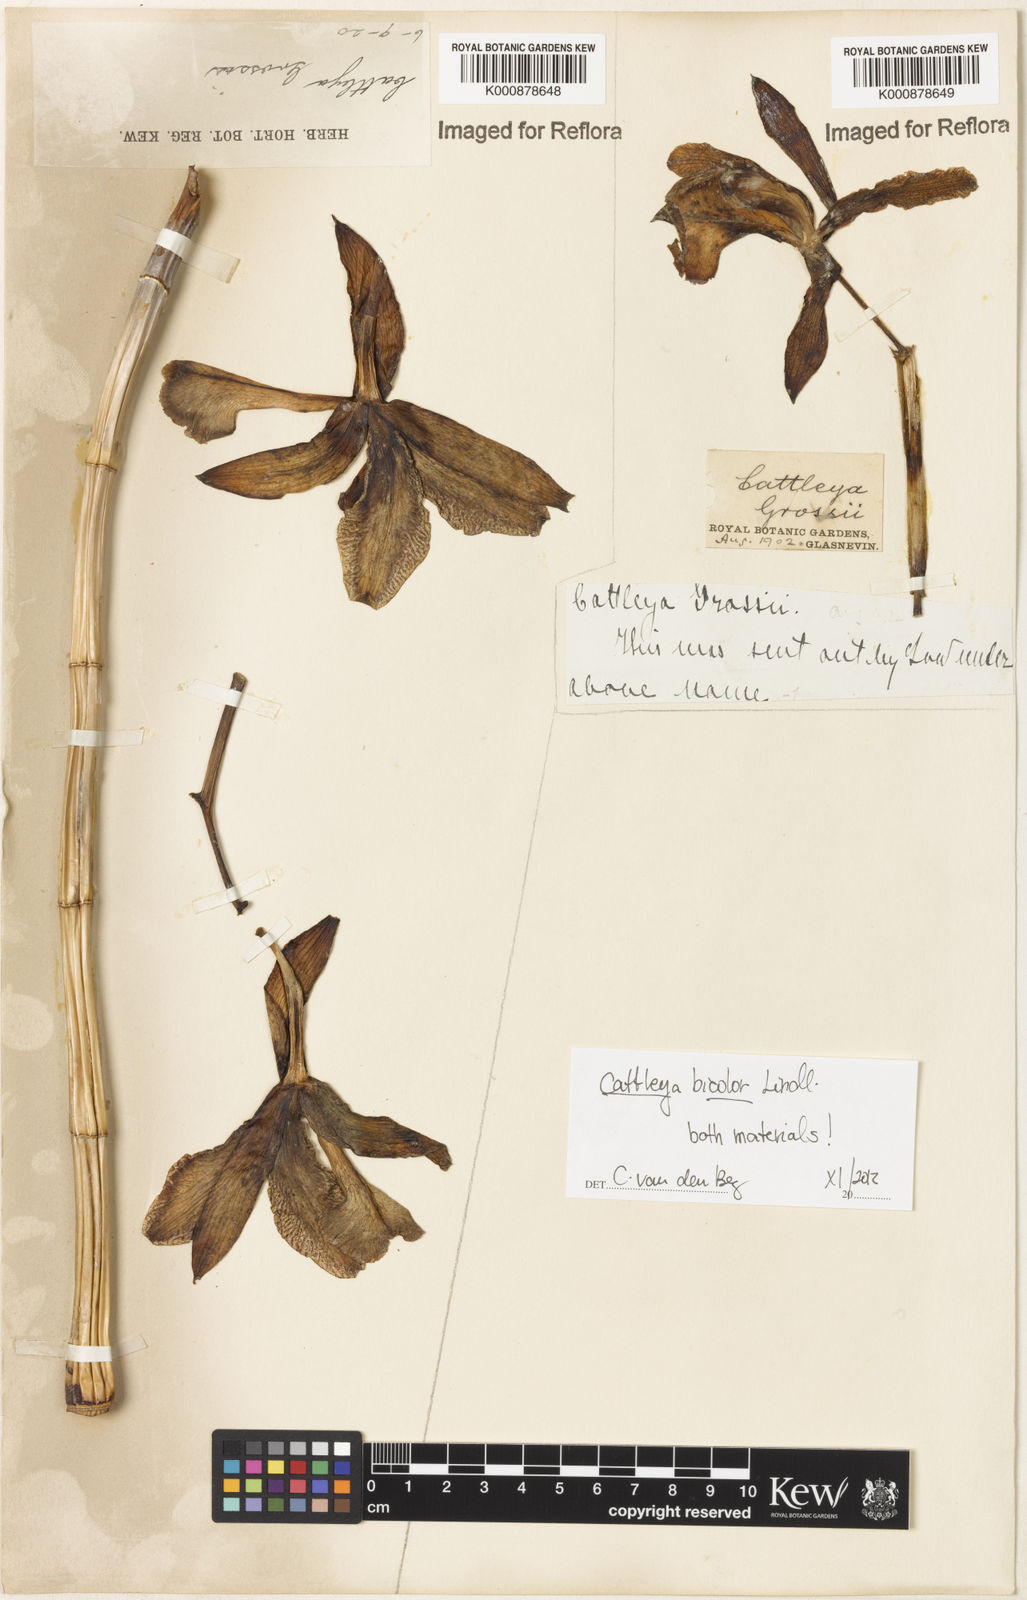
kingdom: Plantae
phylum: Tracheophyta
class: Liliopsida
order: Asparagales
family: Orchidaceae
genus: Cattleya
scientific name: Cattleya bicolor
